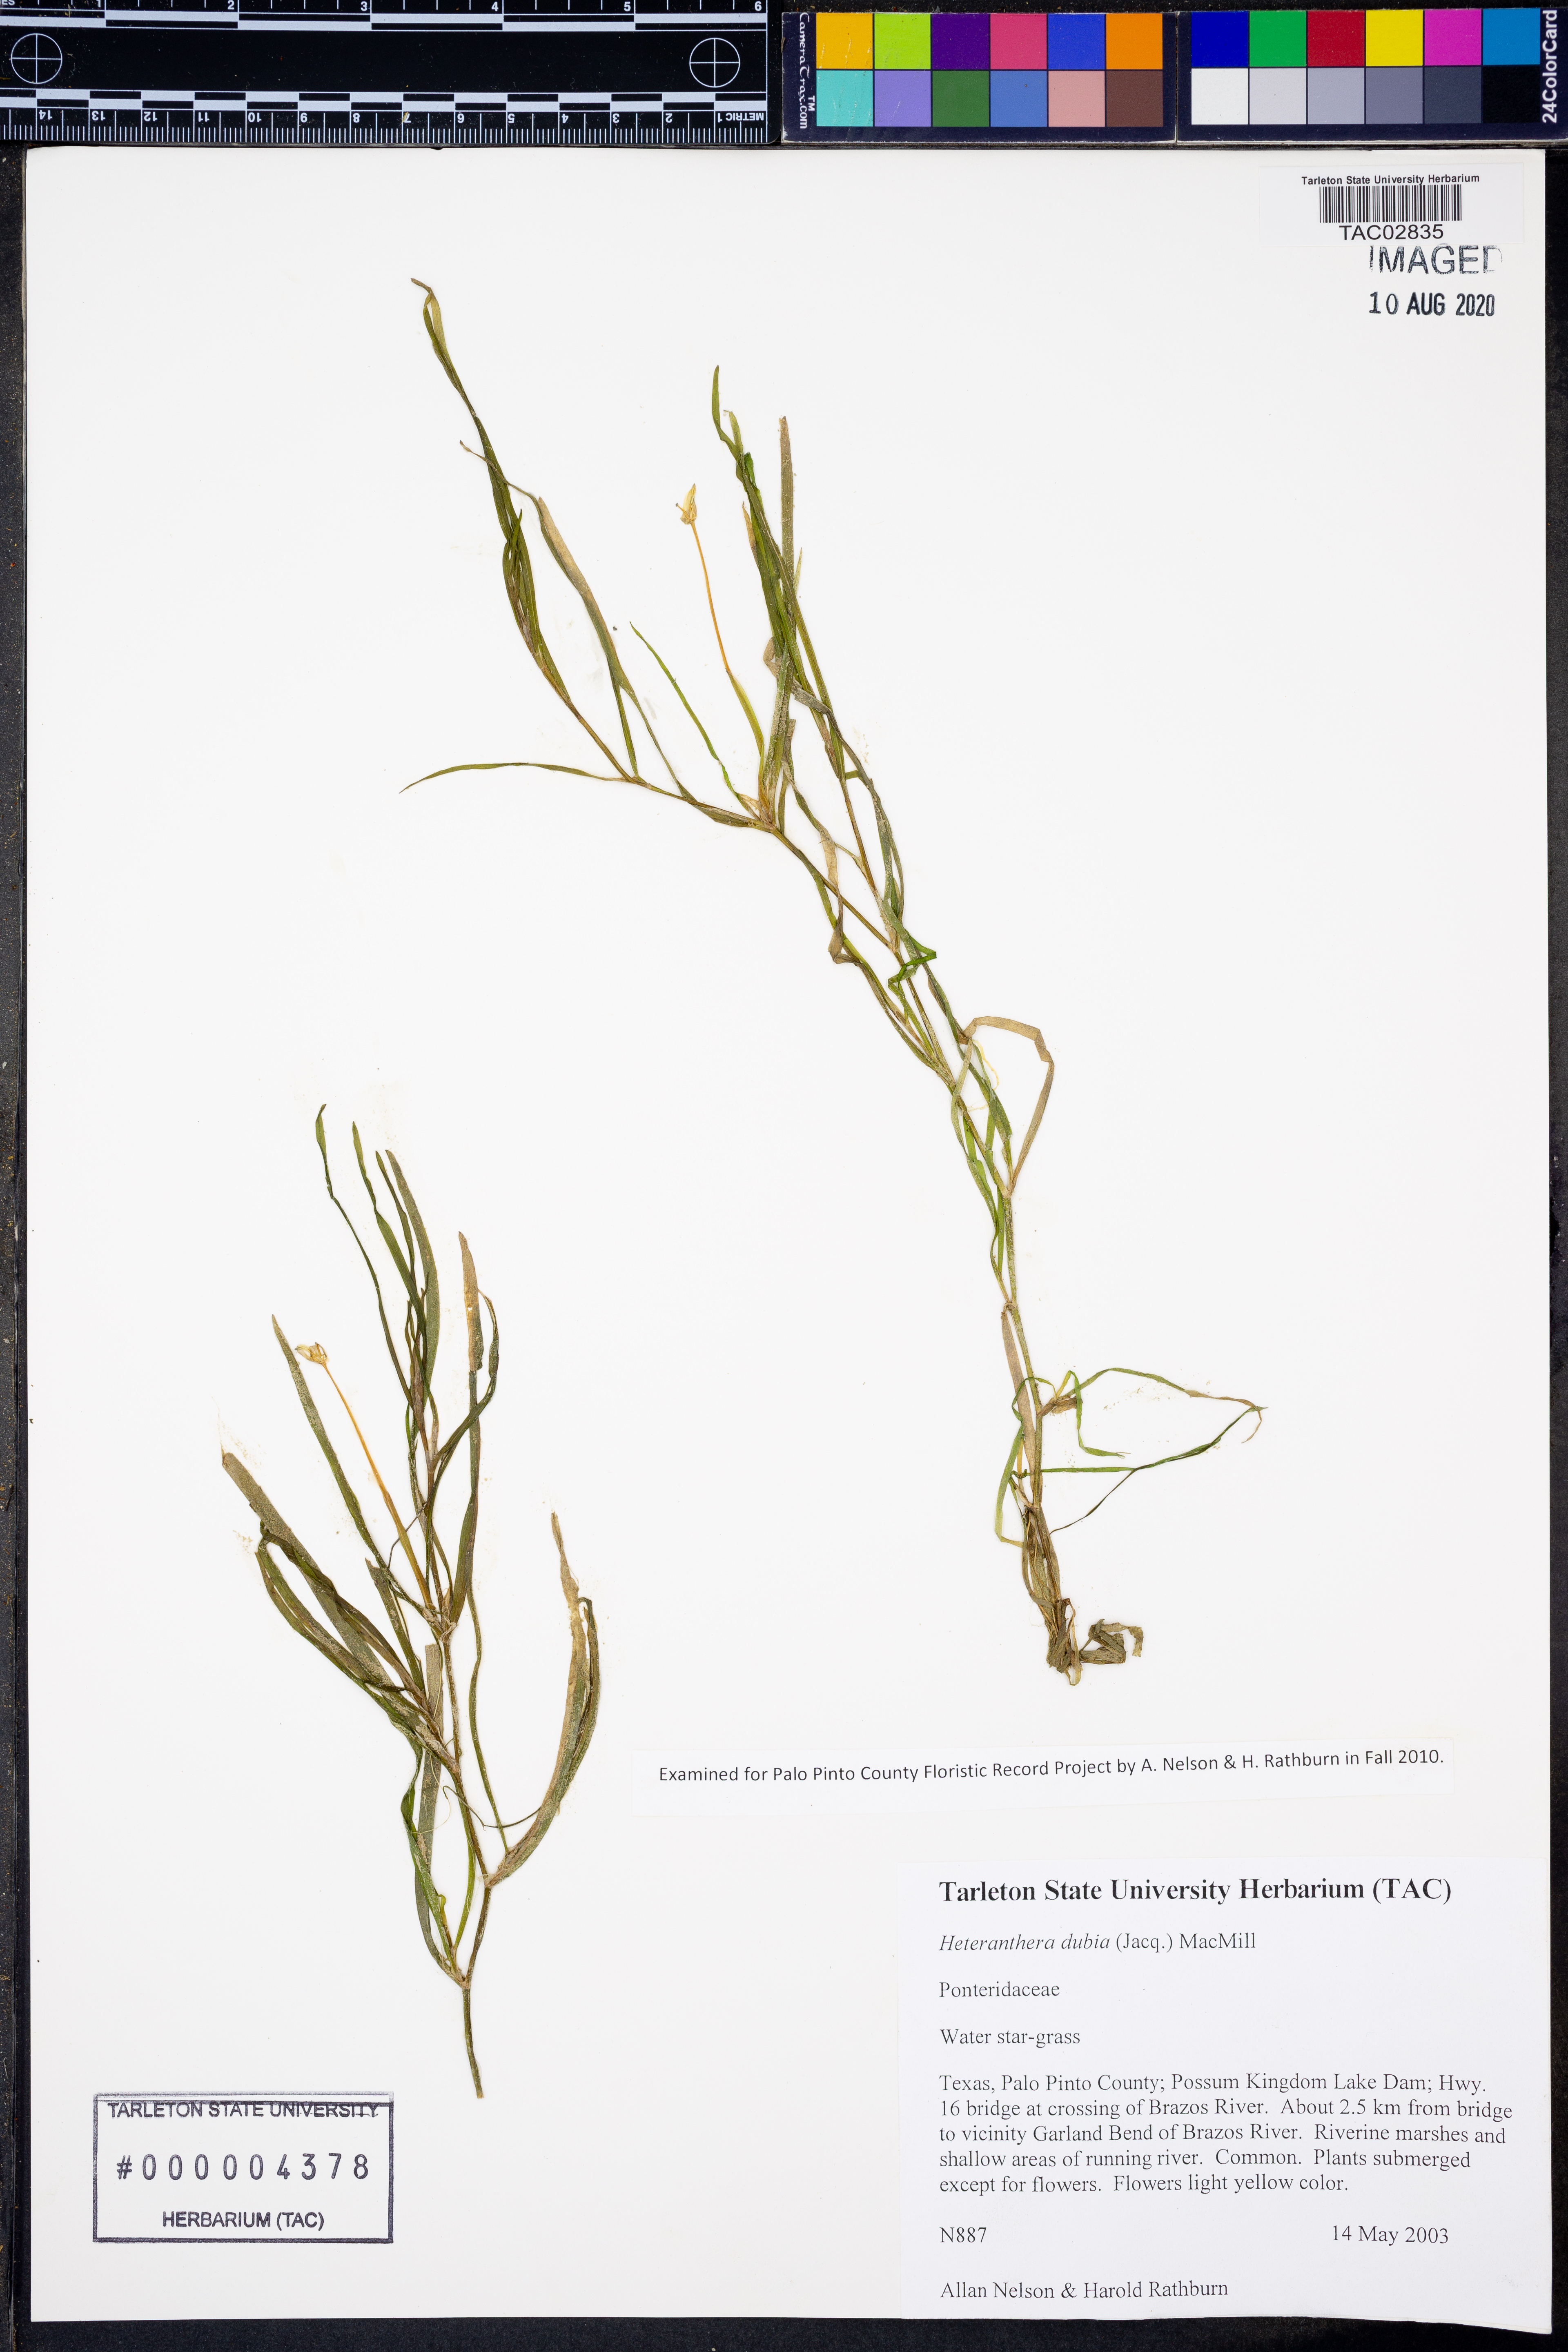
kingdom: Plantae
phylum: Tracheophyta
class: Liliopsida
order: Commelinales
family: Pontederiaceae
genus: Heteranthera
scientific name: Heteranthera dubia
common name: Grass-leaved mud plantain
